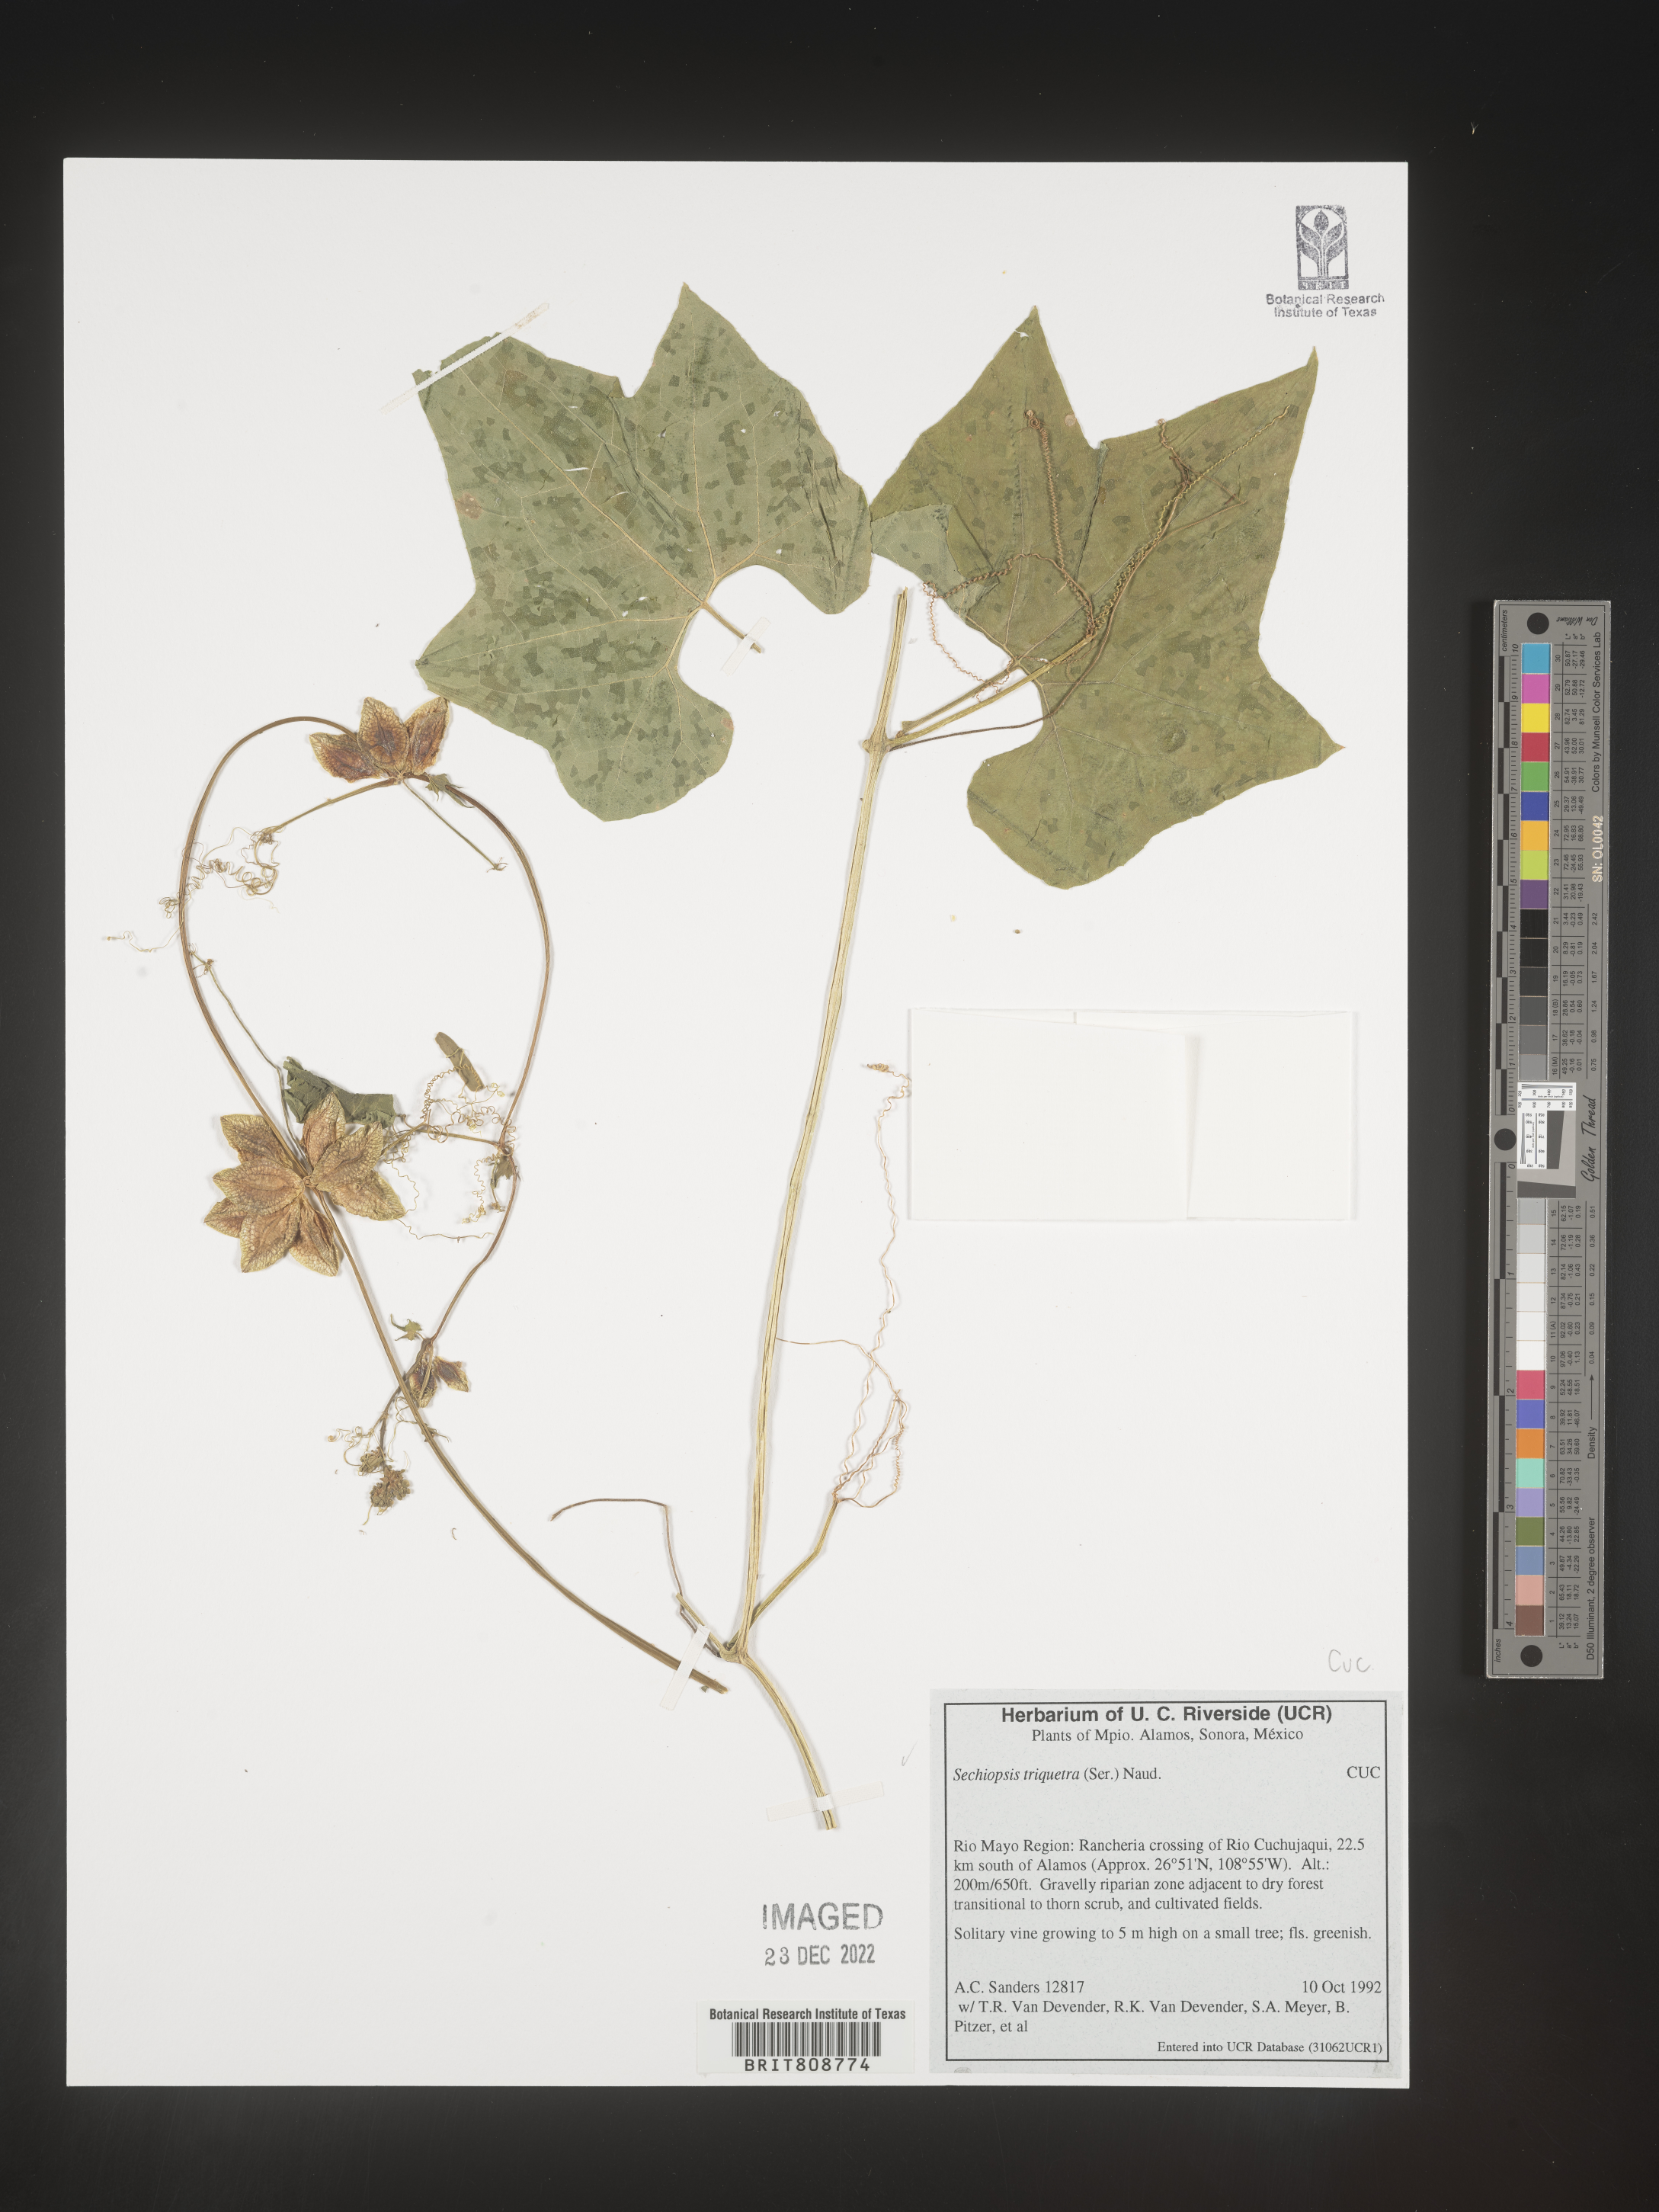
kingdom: Plantae
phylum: Tracheophyta
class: Magnoliopsida
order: Cucurbitales
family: Cucurbitaceae
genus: Sechiopsis
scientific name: Sechiopsis
